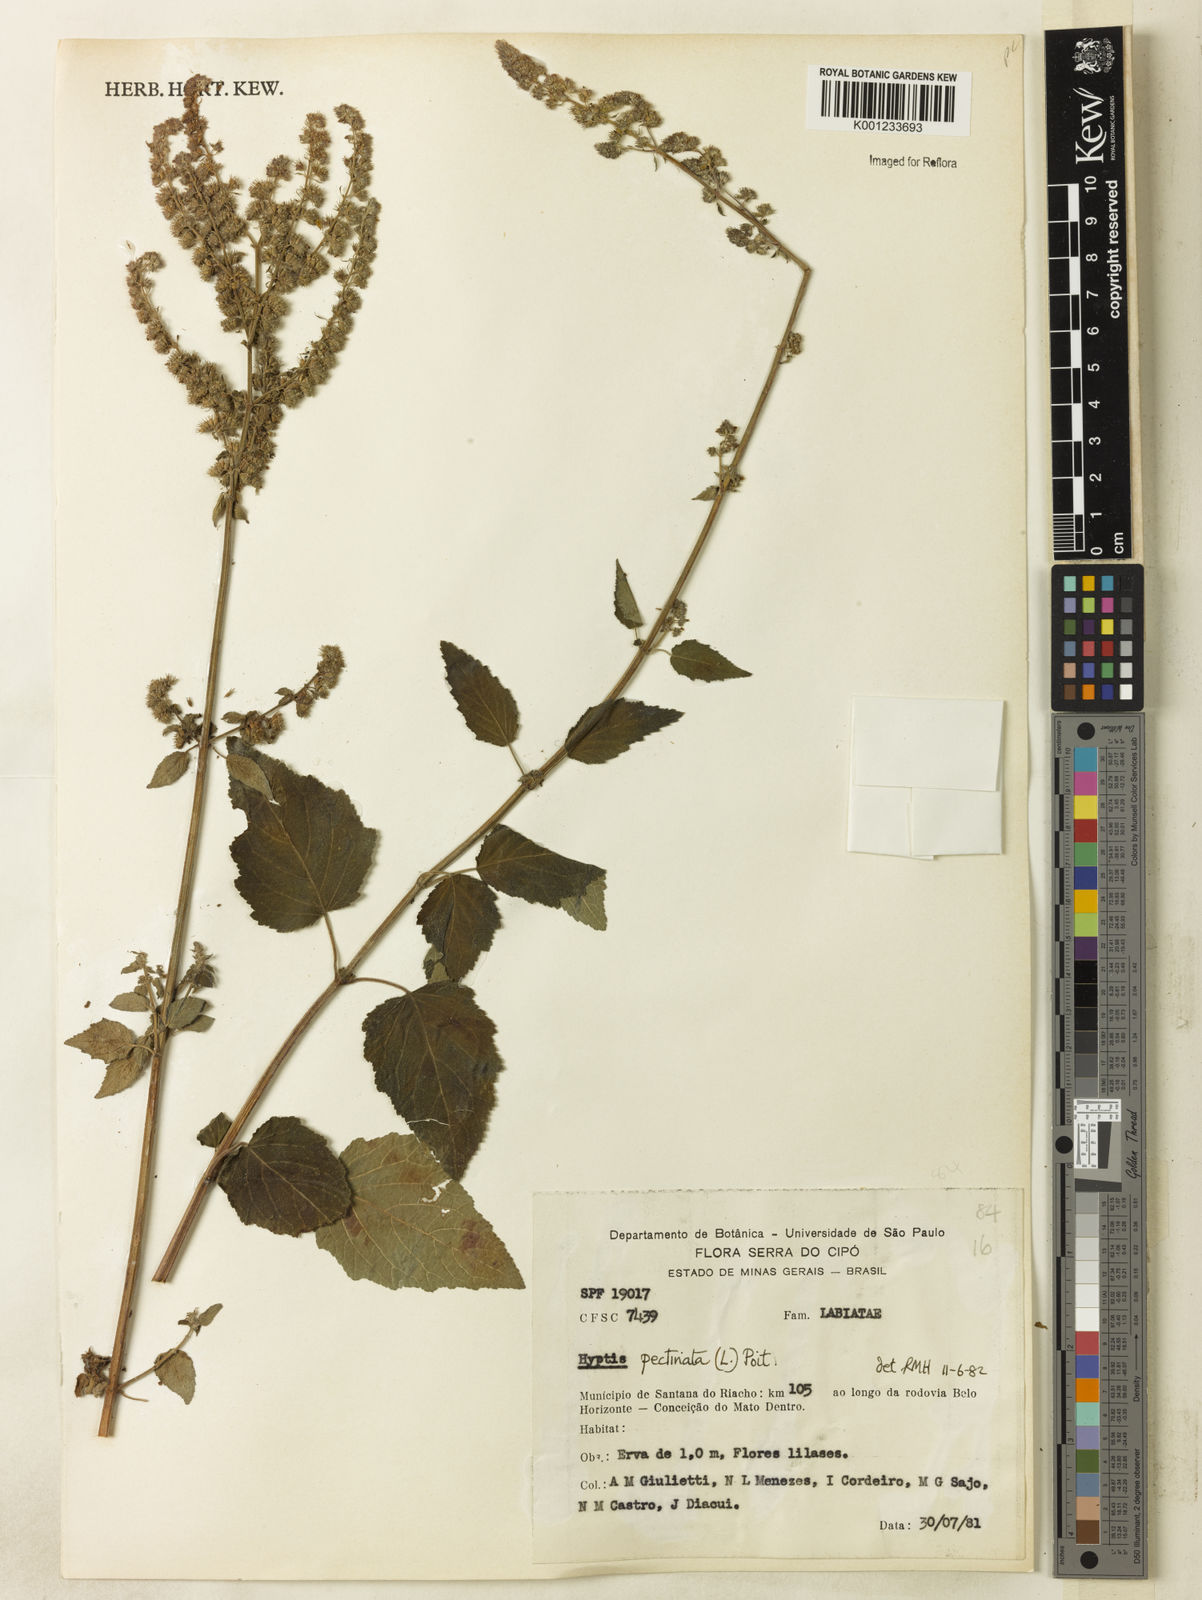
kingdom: Plantae
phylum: Tracheophyta
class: Magnoliopsida
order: Lamiales
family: Lamiaceae
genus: Mesosphaerum
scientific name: Mesosphaerum pectinatum
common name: Comb hyptis
